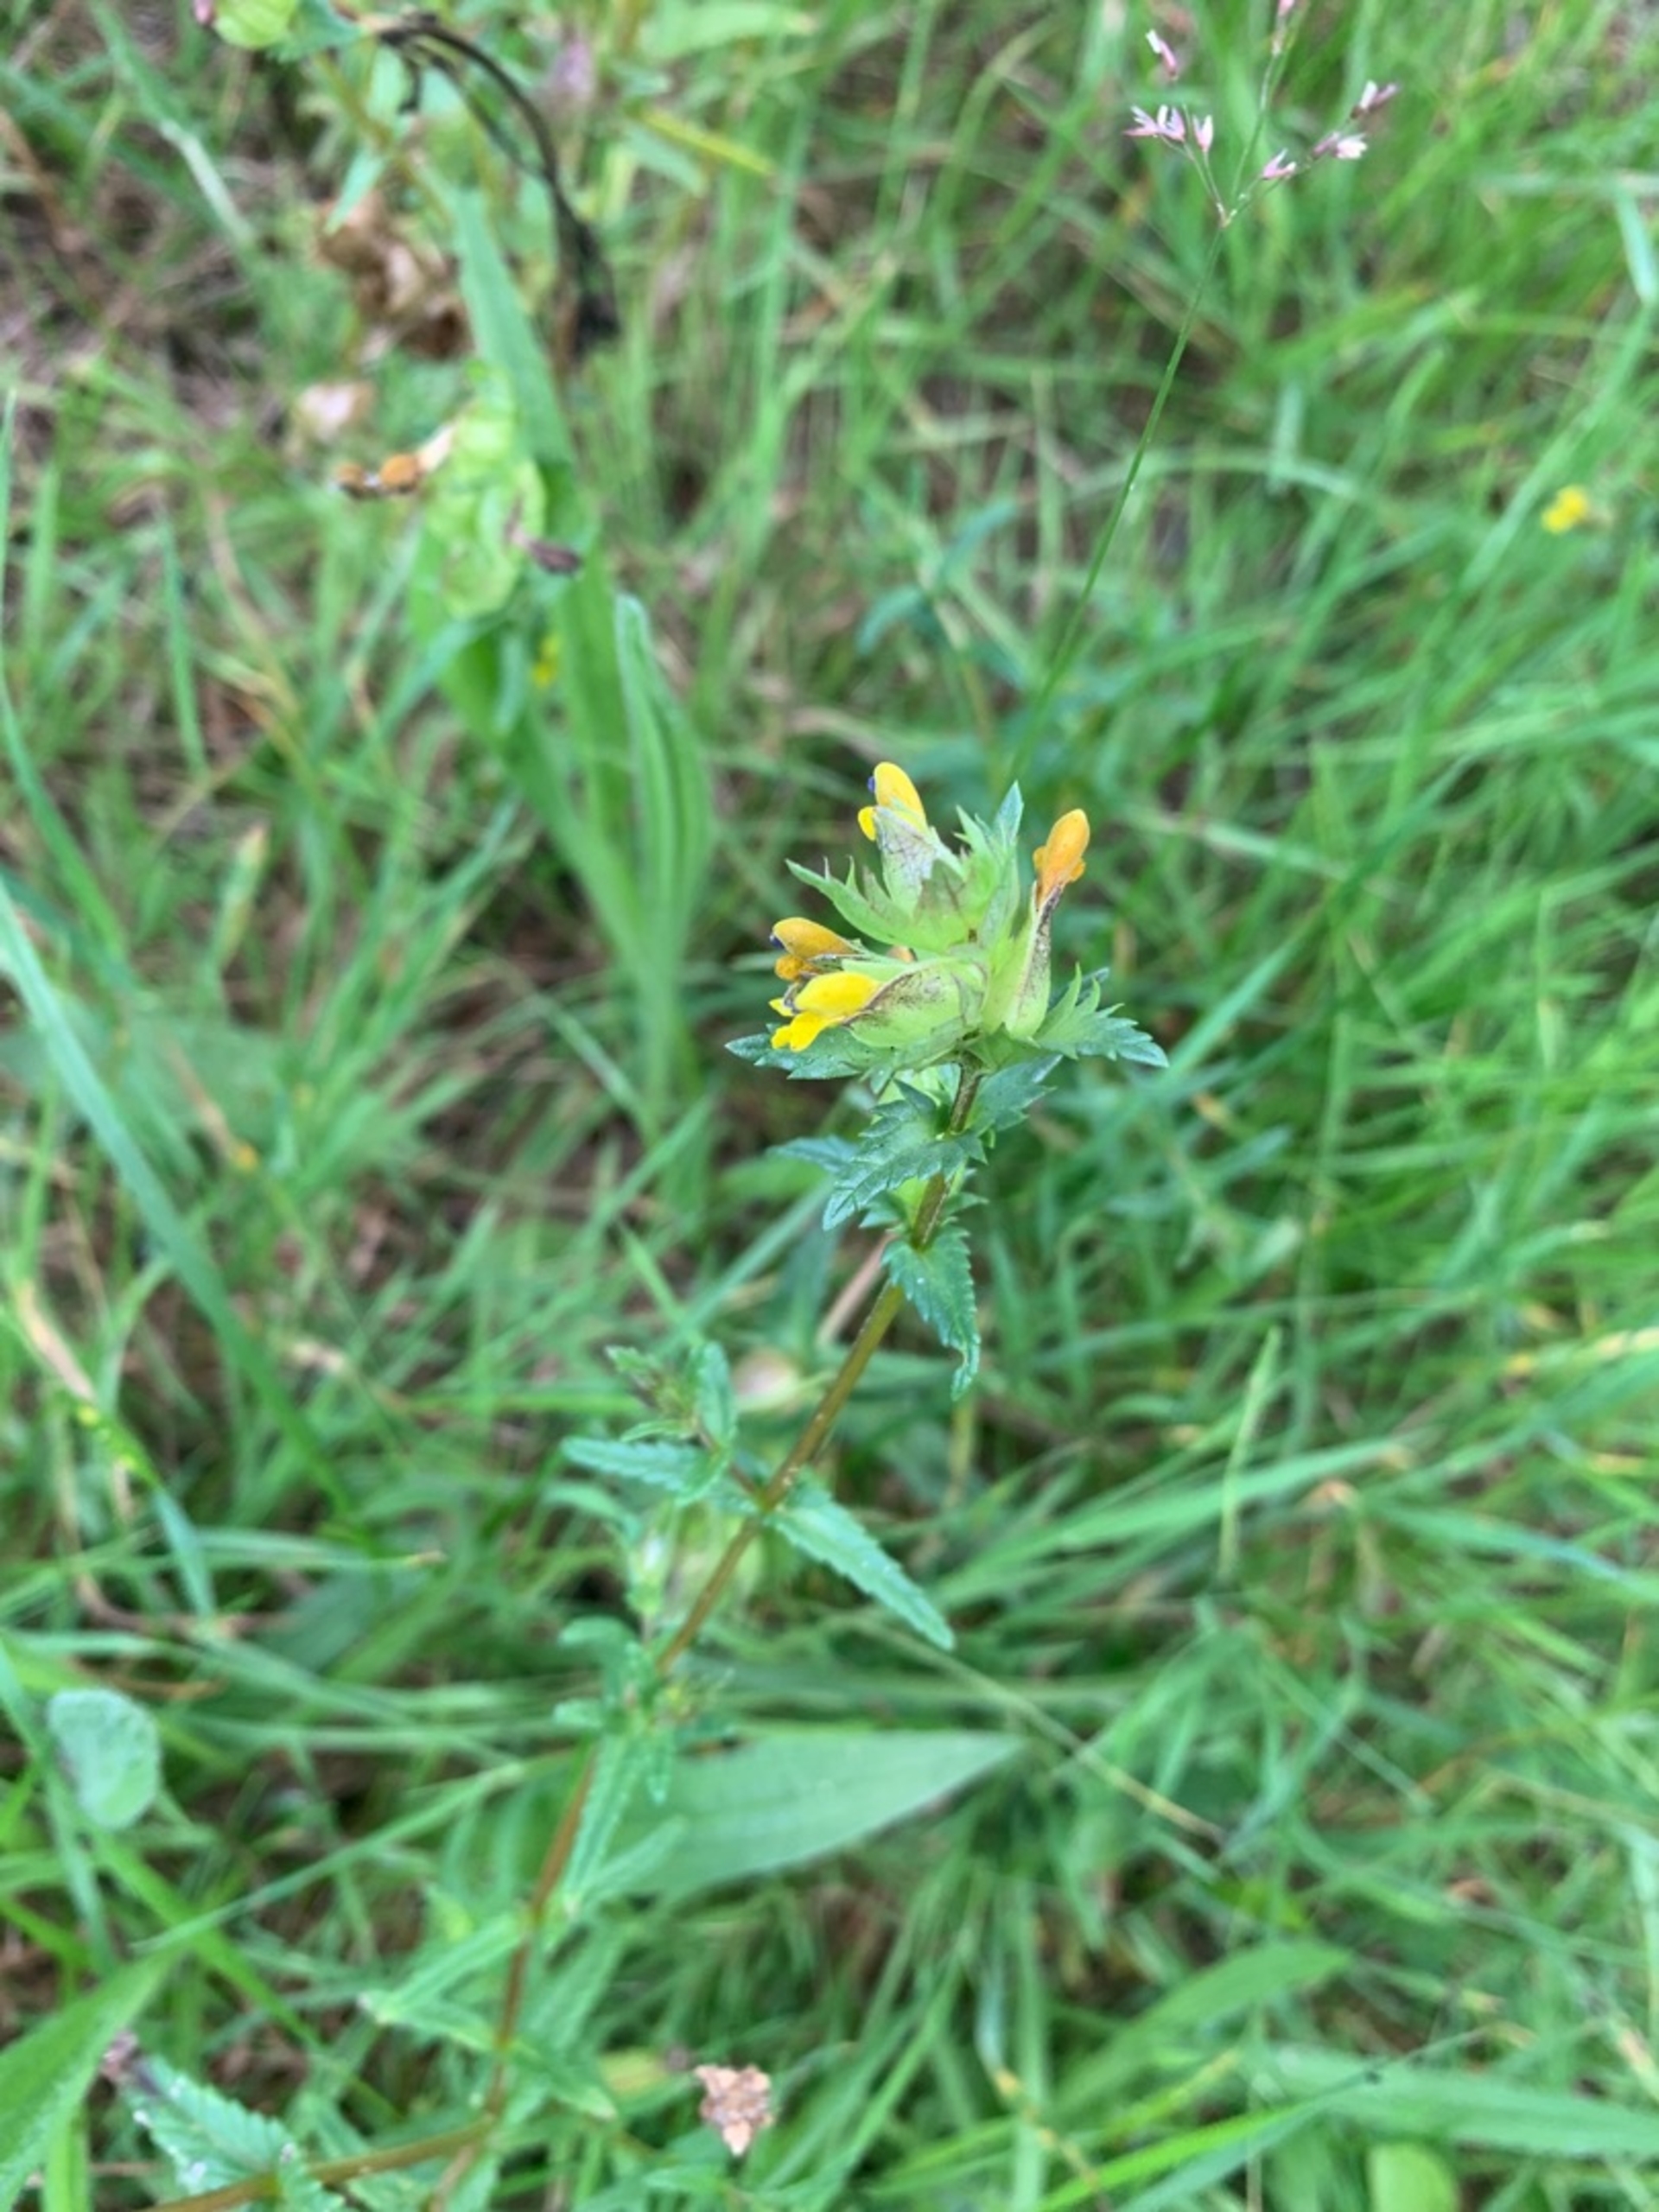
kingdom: Plantae
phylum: Tracheophyta
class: Magnoliopsida
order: Lamiales
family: Orobanchaceae
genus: Rhinanthus
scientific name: Rhinanthus
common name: Stor skjaller
